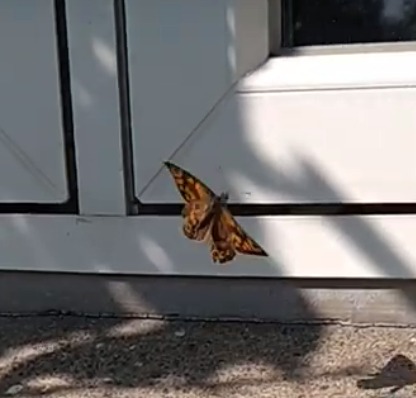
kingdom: Animalia
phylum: Arthropoda
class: Insecta
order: Lepidoptera
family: Nymphalidae
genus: Pararge
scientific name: Pararge Lasiommata megera
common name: Vejrandøje
